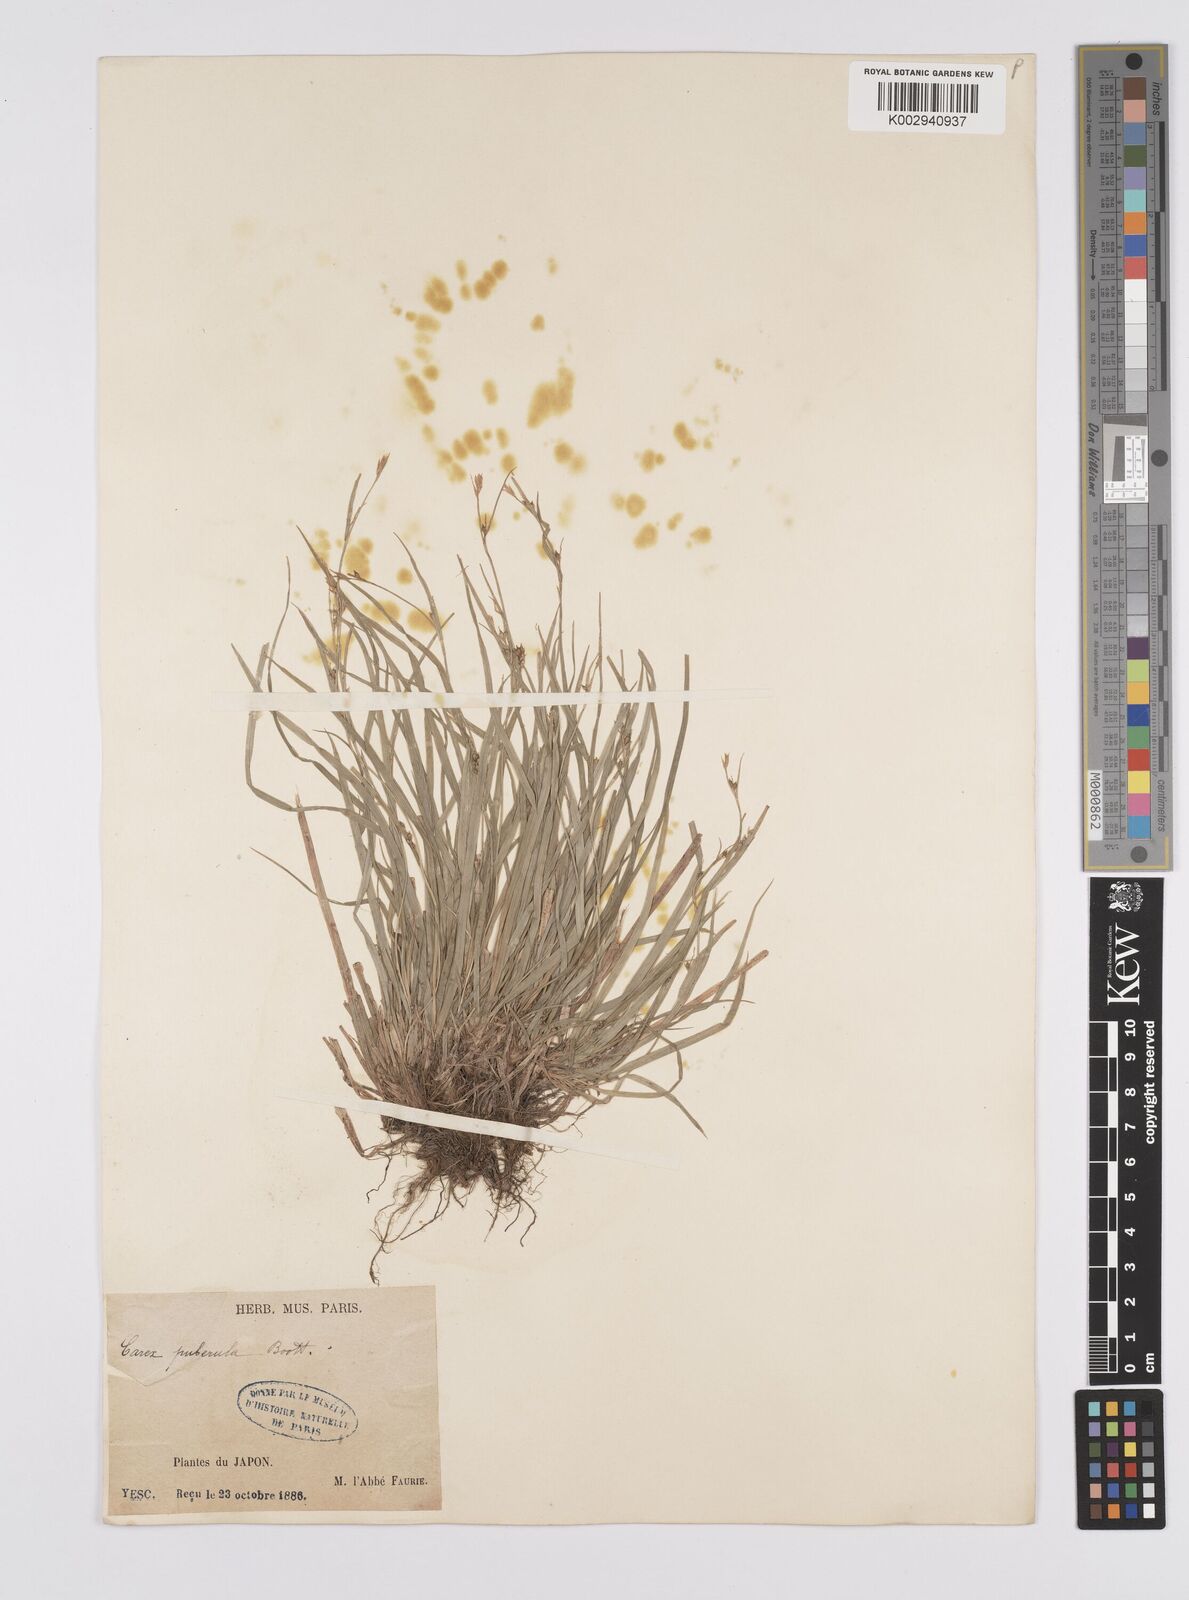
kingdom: Plantae
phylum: Tracheophyta
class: Liliopsida
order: Poales
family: Cyperaceae
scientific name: Cyperaceae
